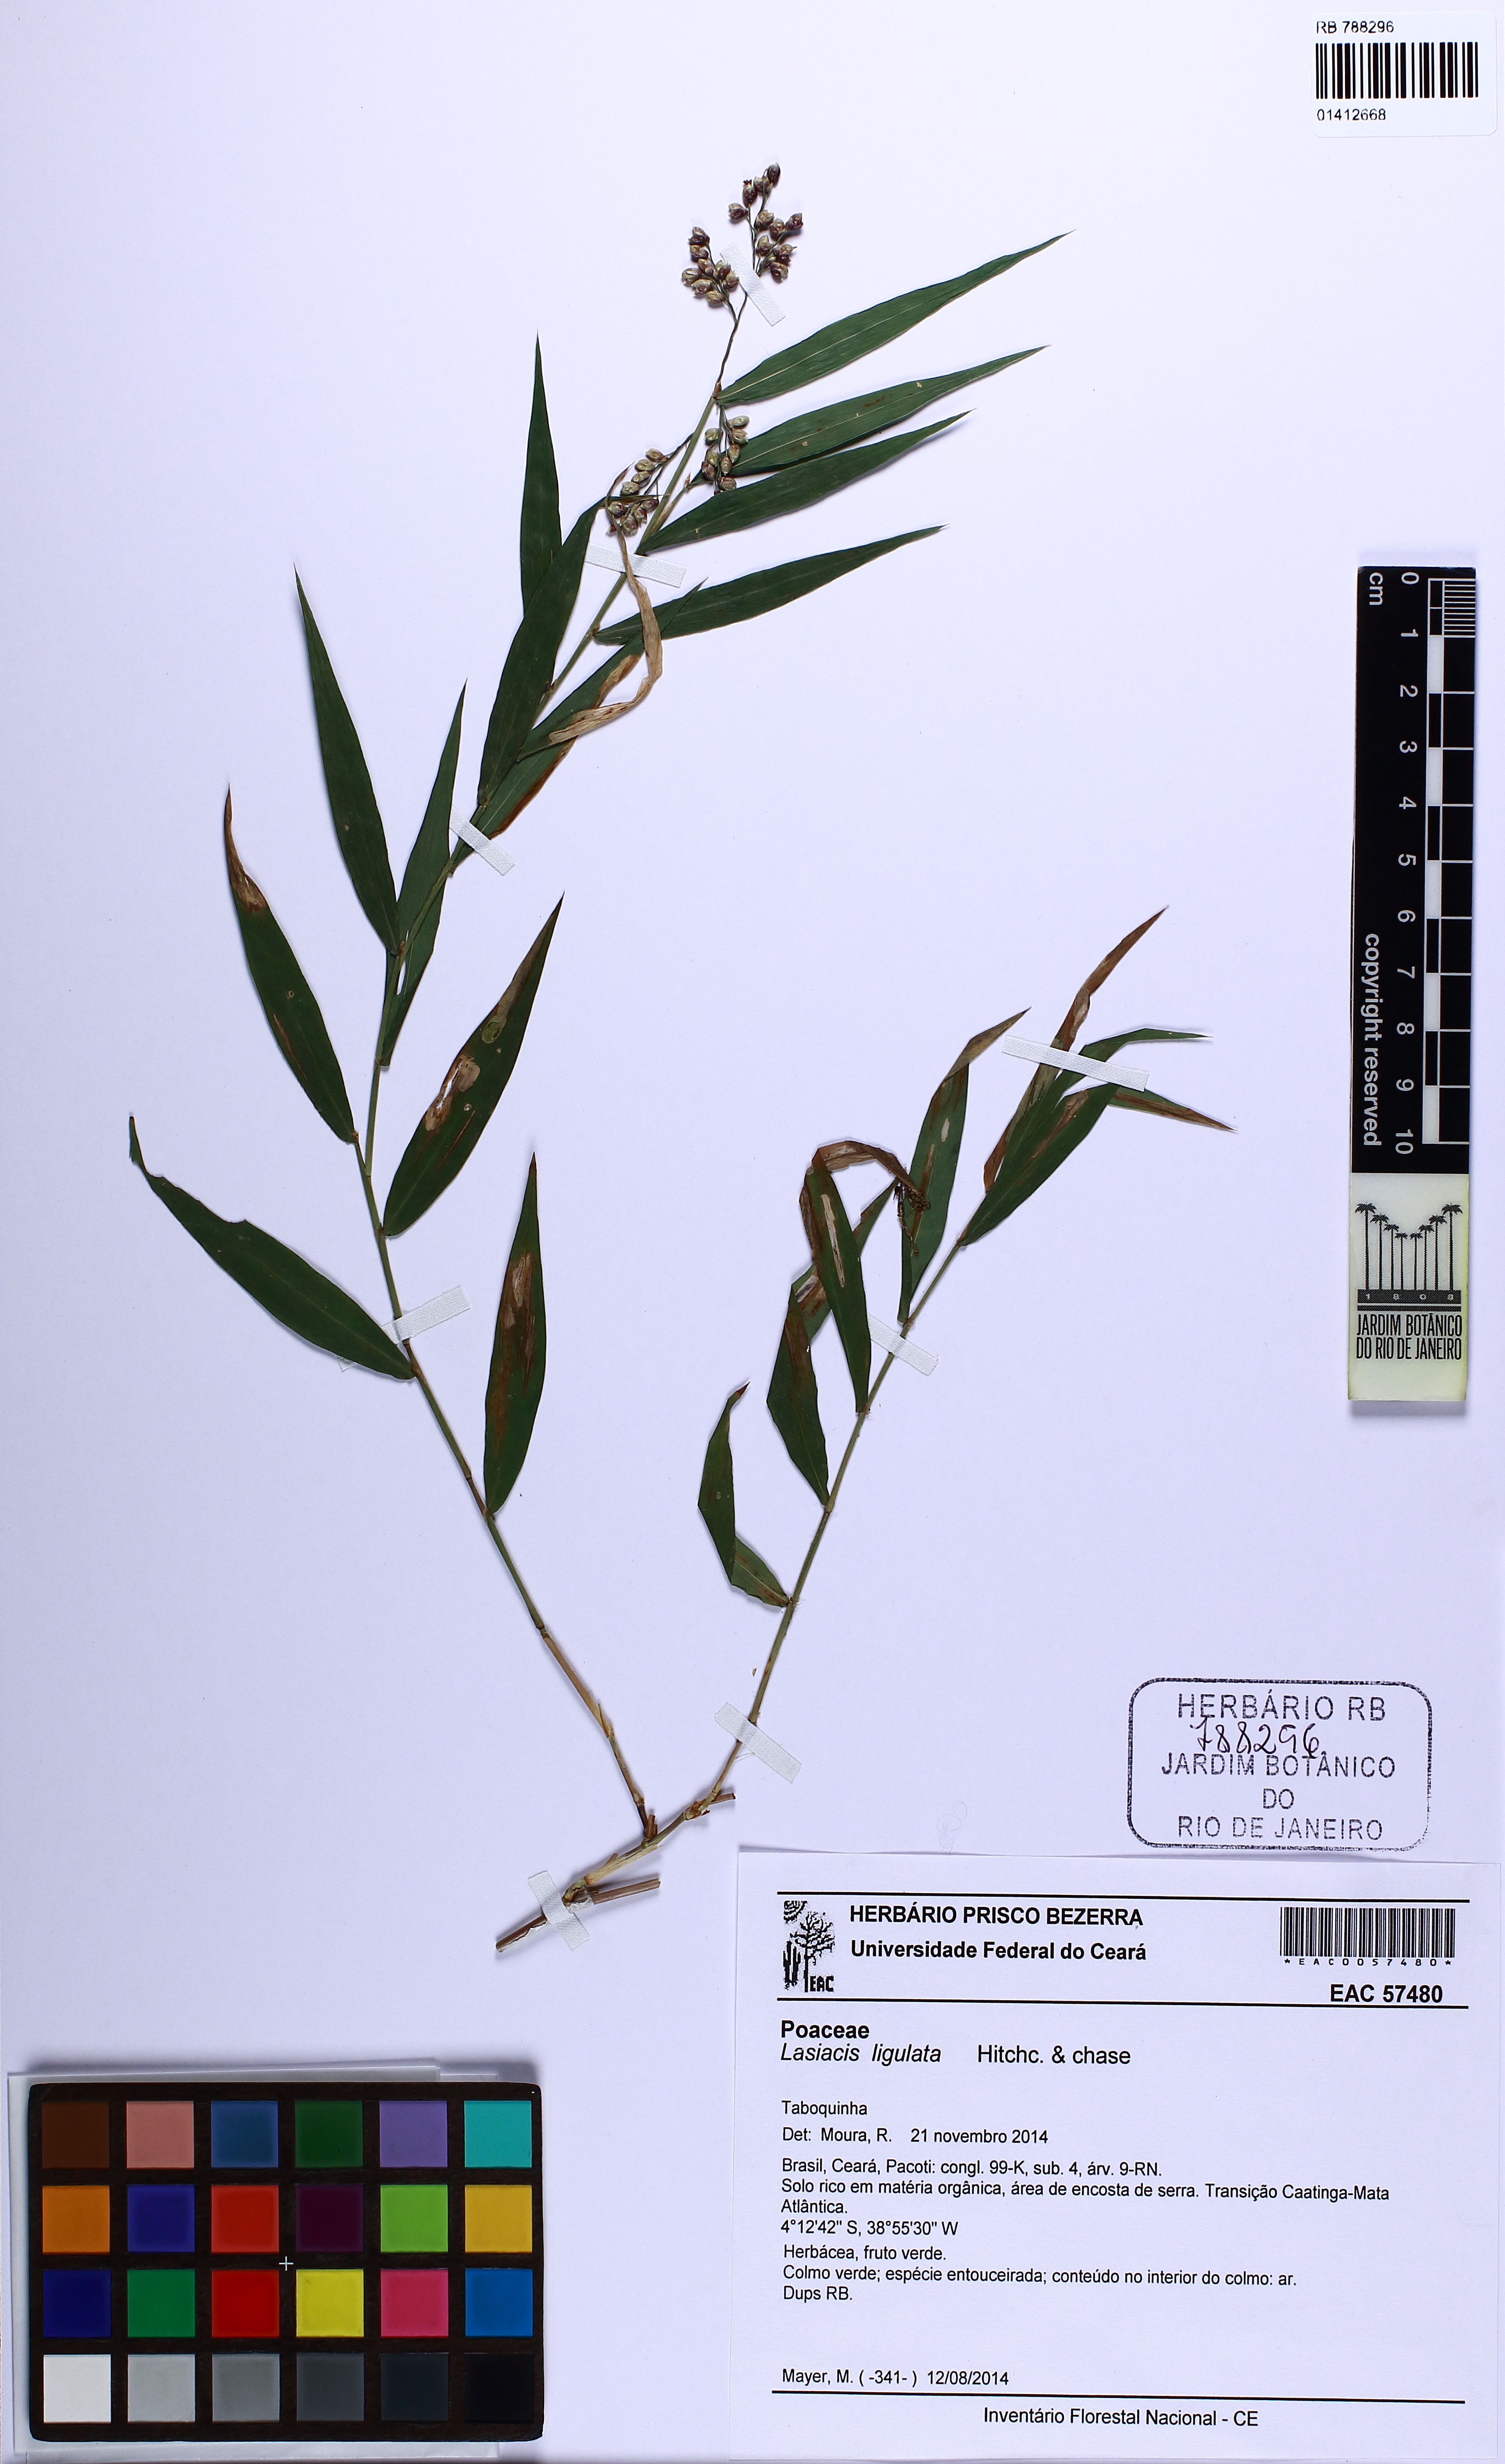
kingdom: Plantae
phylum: Tracheophyta
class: Liliopsida
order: Poales
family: Poaceae
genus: Lasiacis
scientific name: Lasiacis ligulata
